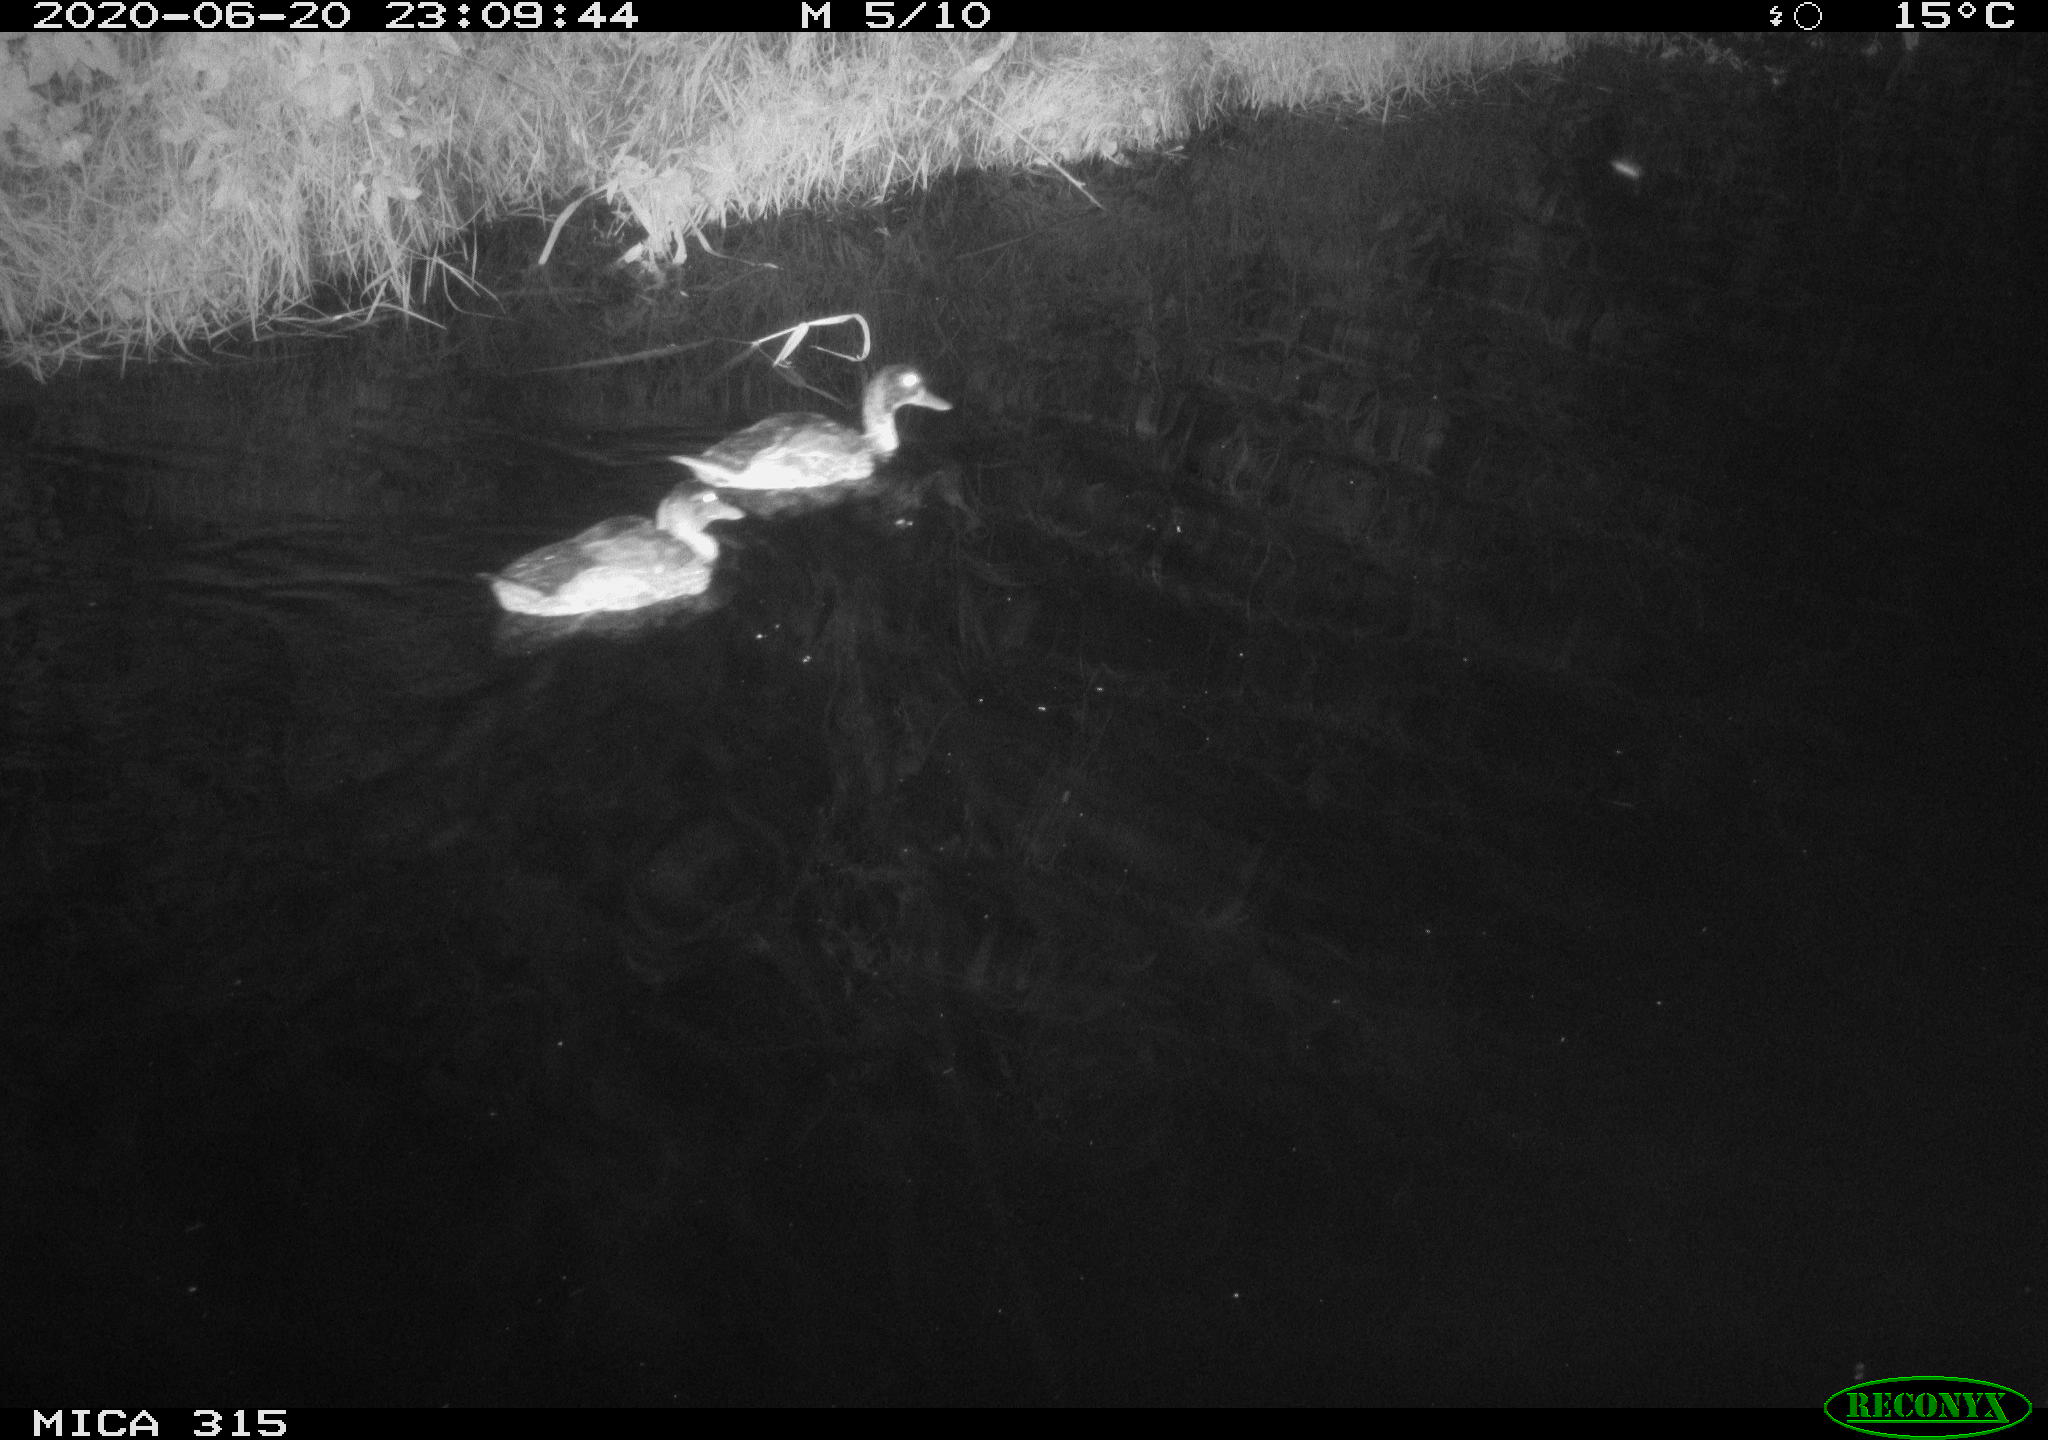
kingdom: Animalia
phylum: Chordata
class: Aves
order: Anseriformes
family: Anatidae
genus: Anas
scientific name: Anas platyrhynchos
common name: Mallard
